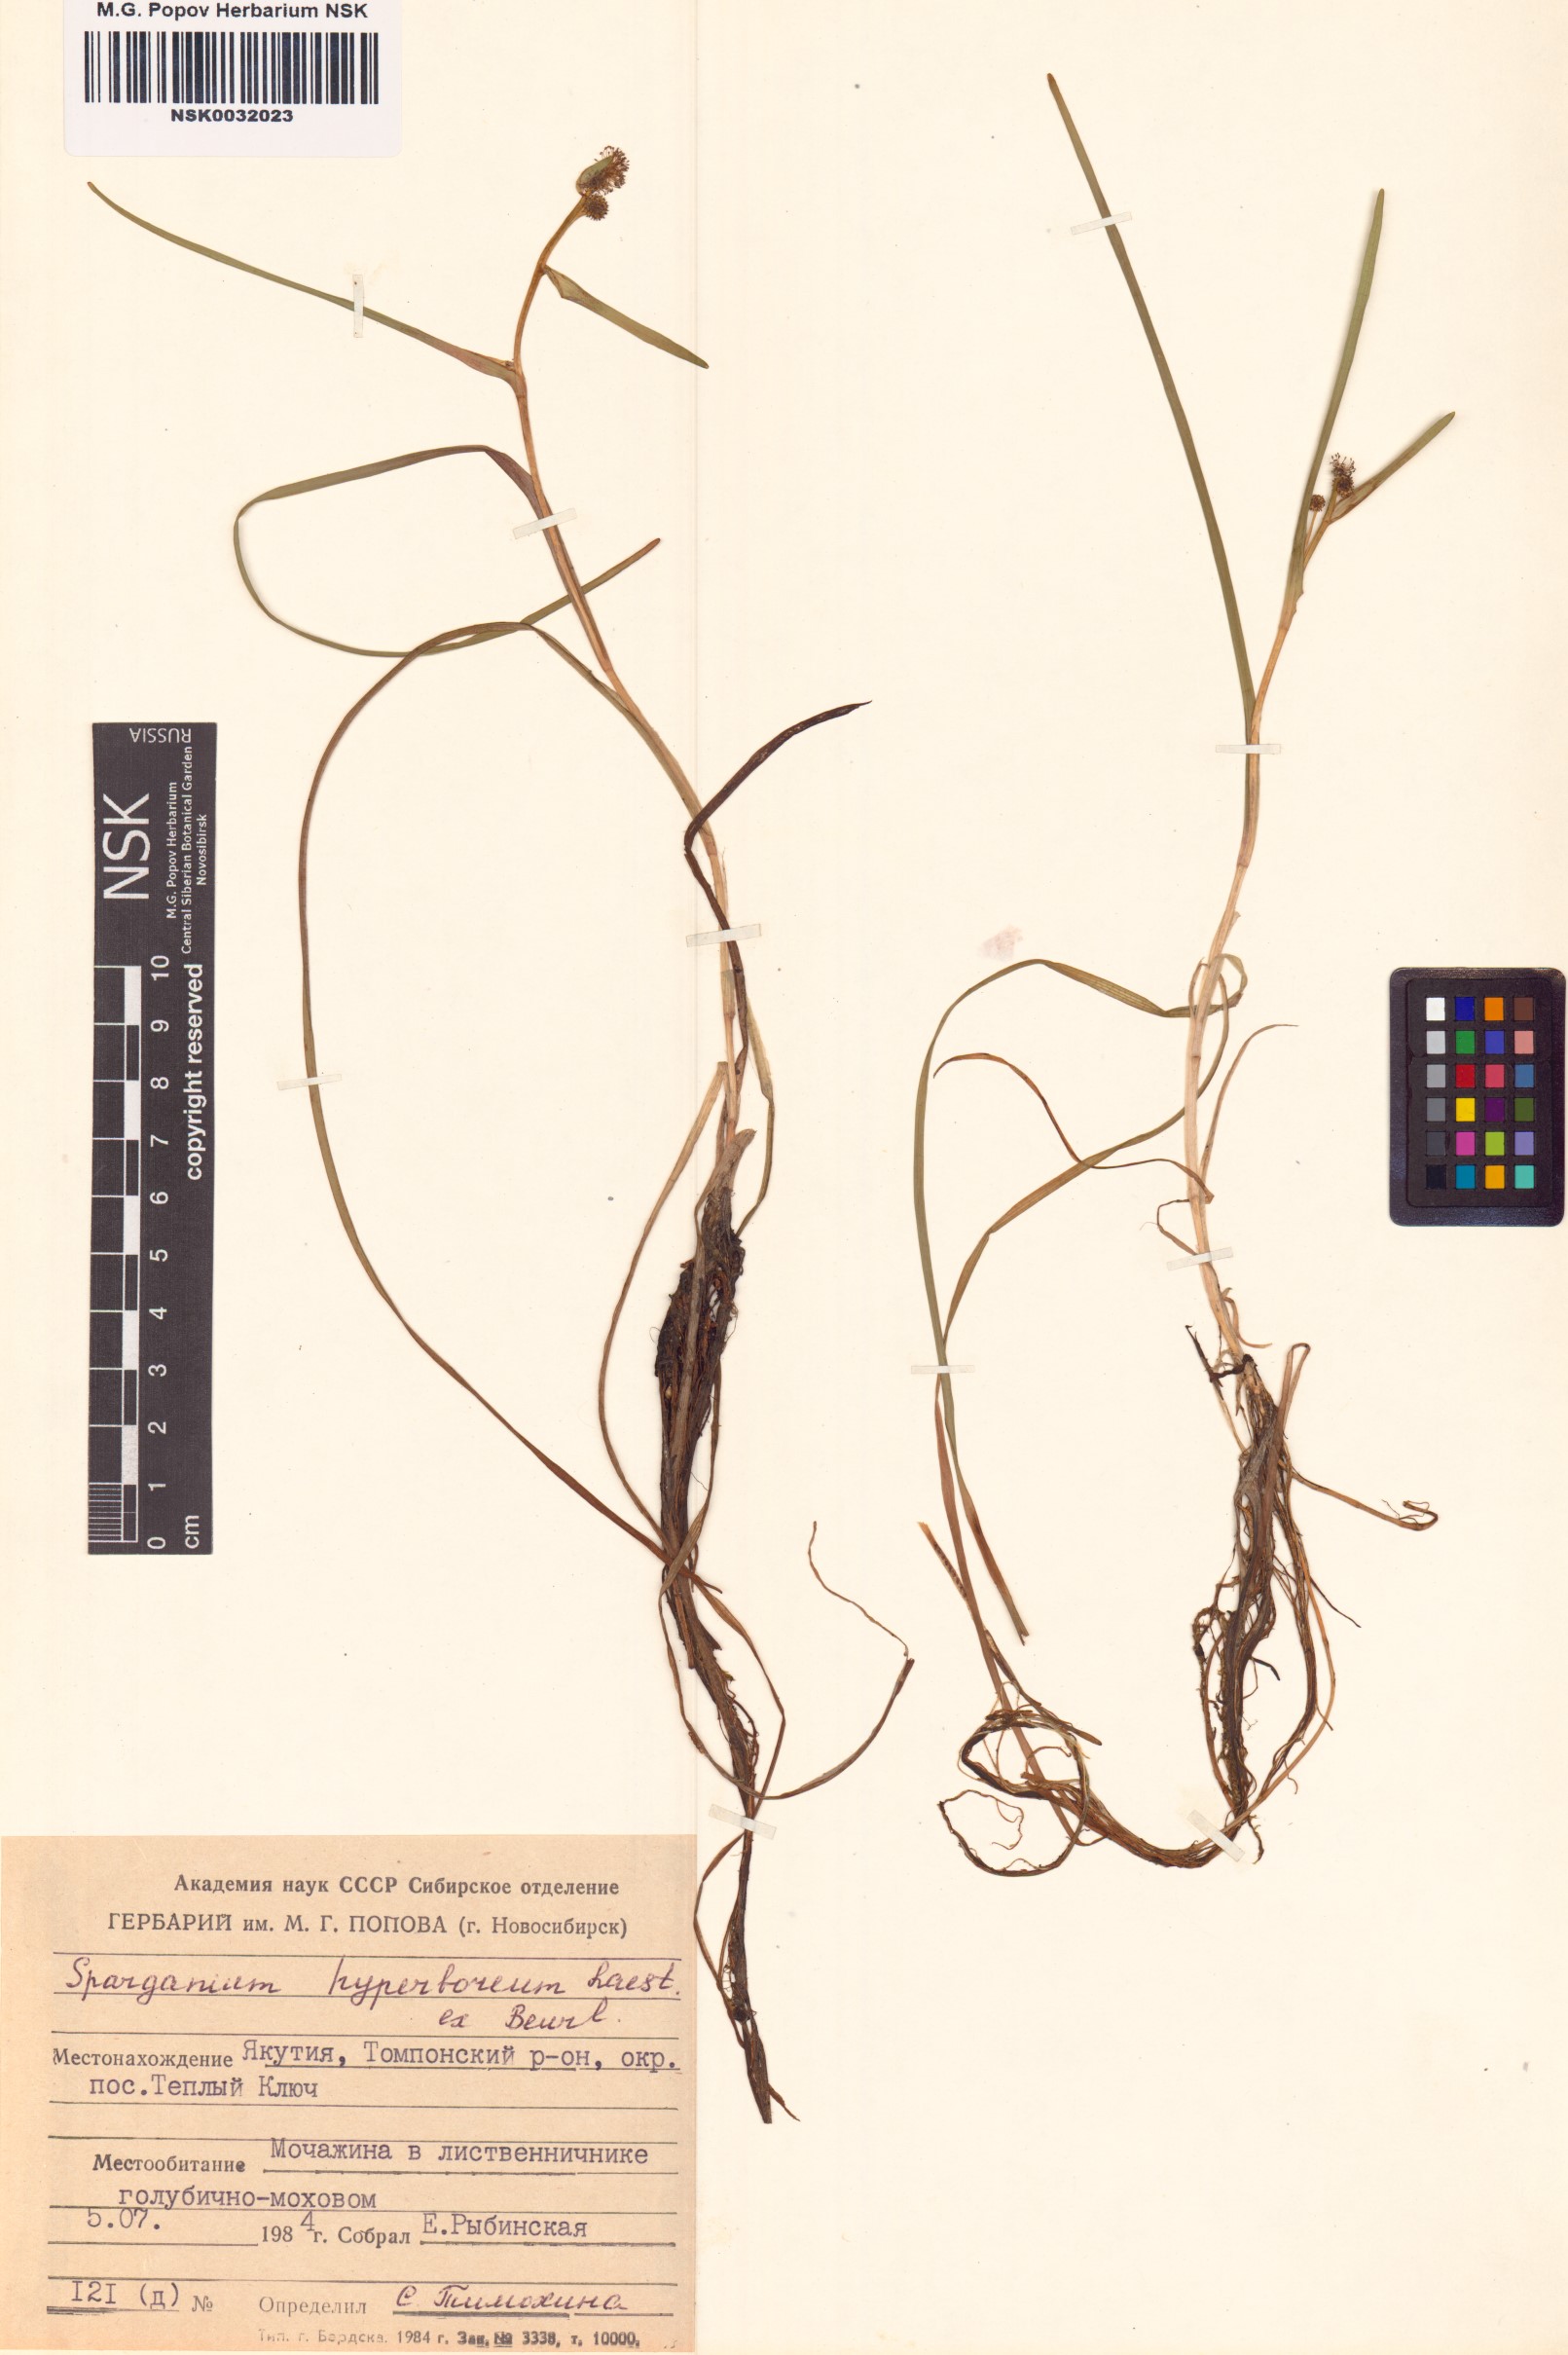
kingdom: Plantae
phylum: Tracheophyta
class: Liliopsida
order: Poales
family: Typhaceae
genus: Sparganium
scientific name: Sparganium hyperboreum
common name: Arctic burreed
